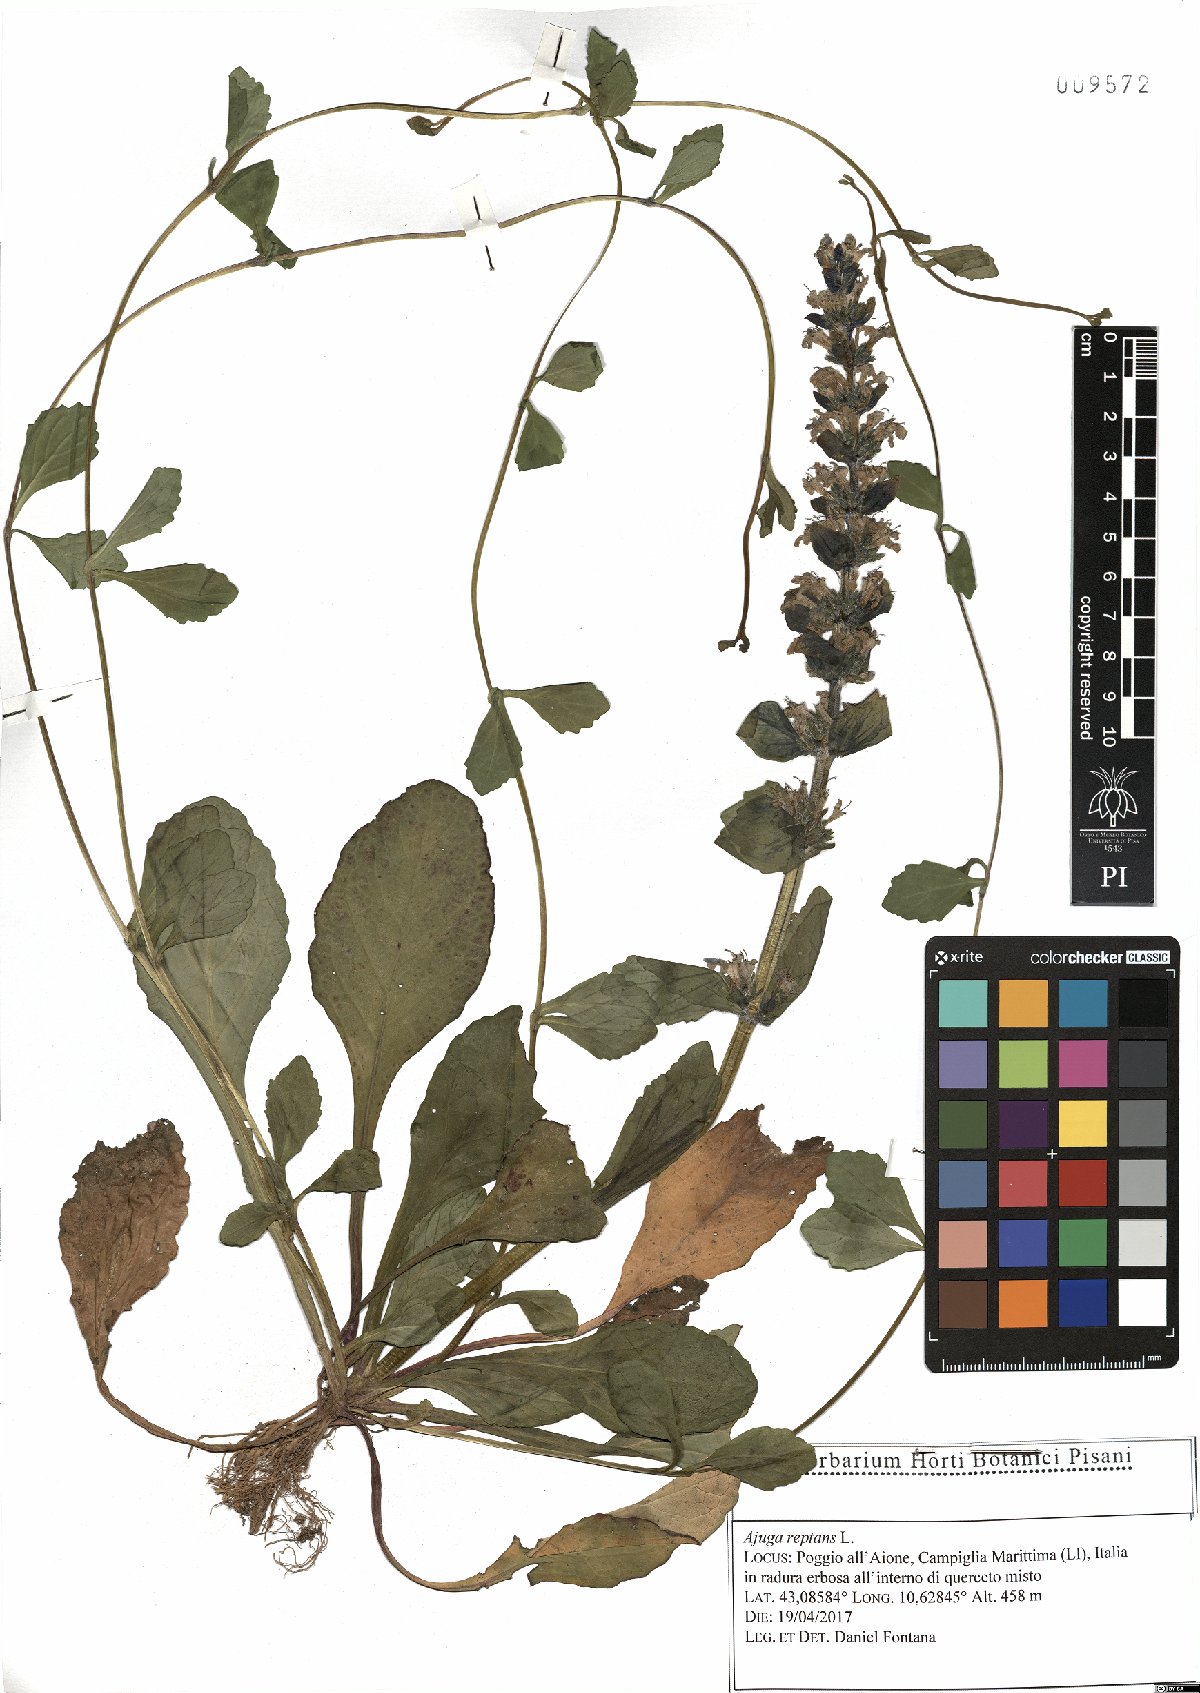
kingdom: Plantae
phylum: Tracheophyta
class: Magnoliopsida
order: Lamiales
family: Lamiaceae
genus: Ajuga
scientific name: Ajuga reptans
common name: Bugle
